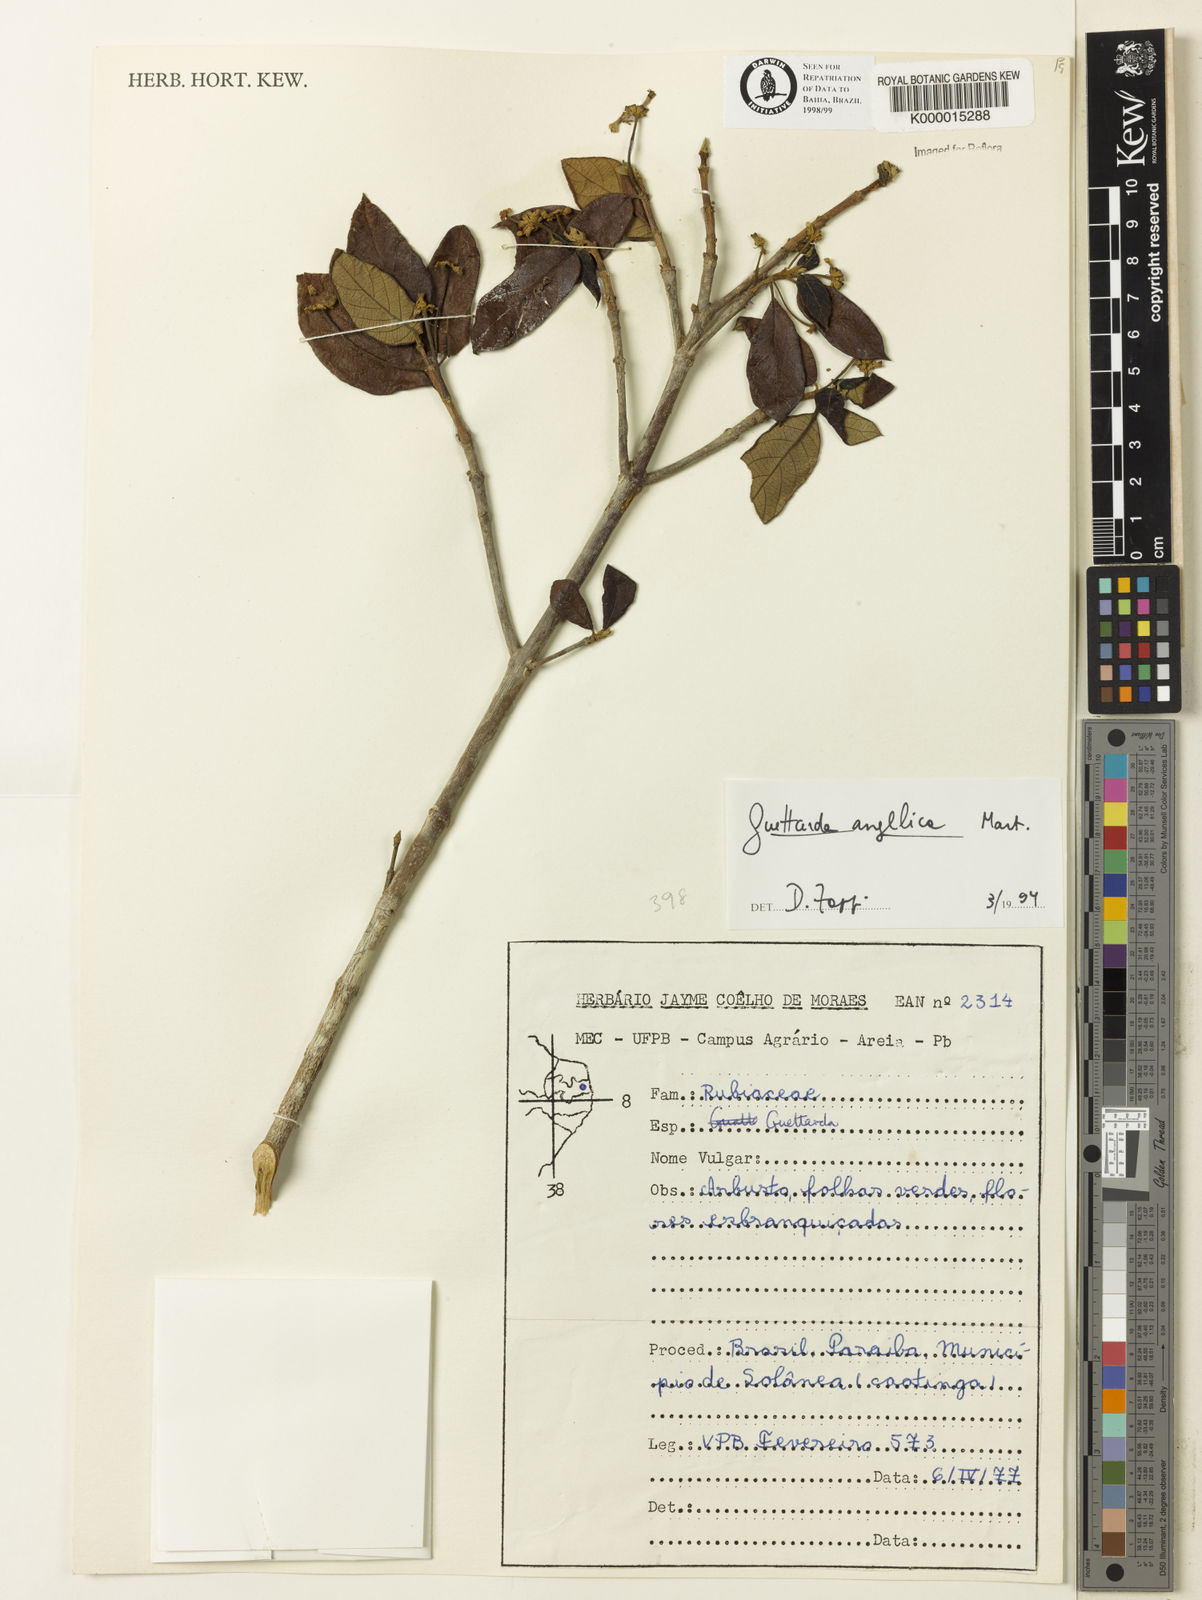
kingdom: Plantae
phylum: Tracheophyta
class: Magnoliopsida
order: Gentianales
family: Rubiaceae
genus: Guettarda
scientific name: Guettarda angelica
